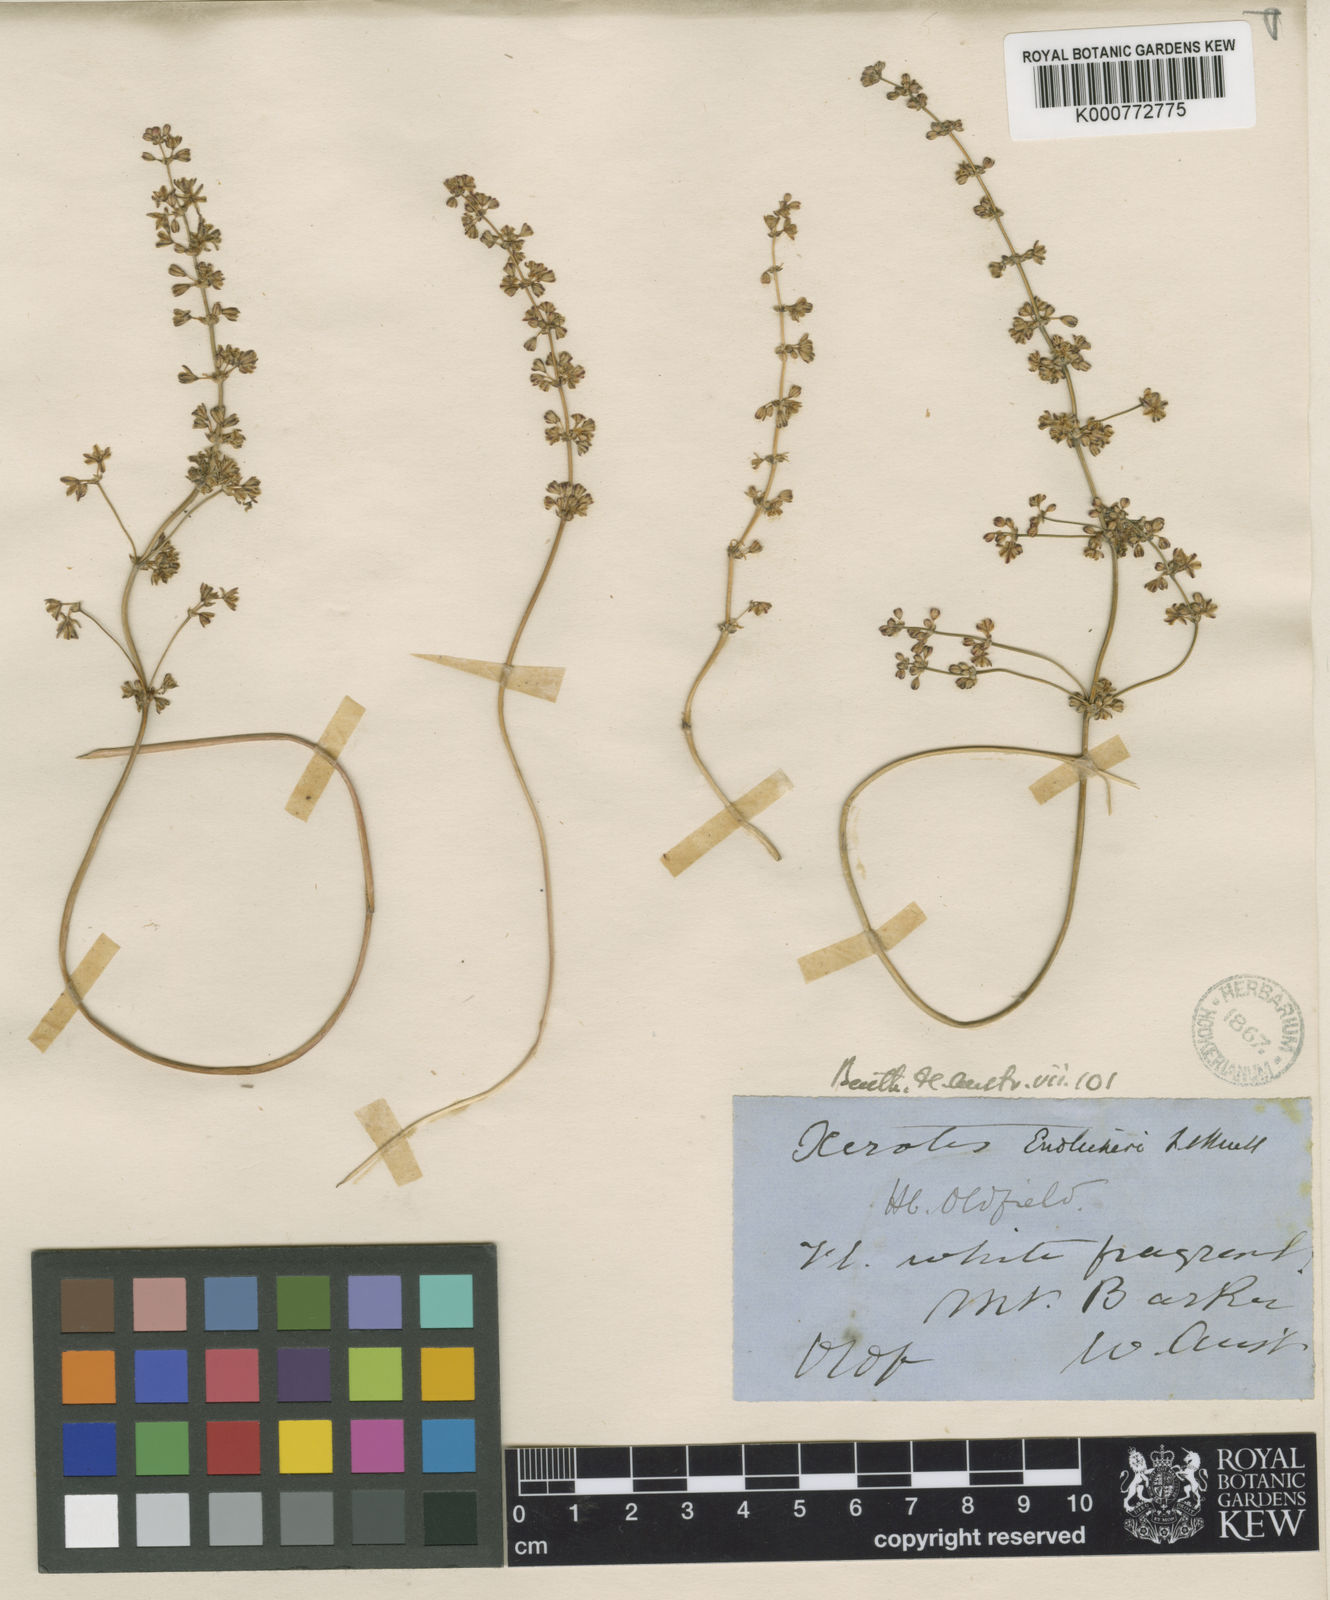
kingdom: Plantae
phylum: Tracheophyta
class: Liliopsida
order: Asparagales
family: Asparagaceae
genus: Lomandra
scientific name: Lomandra odora
